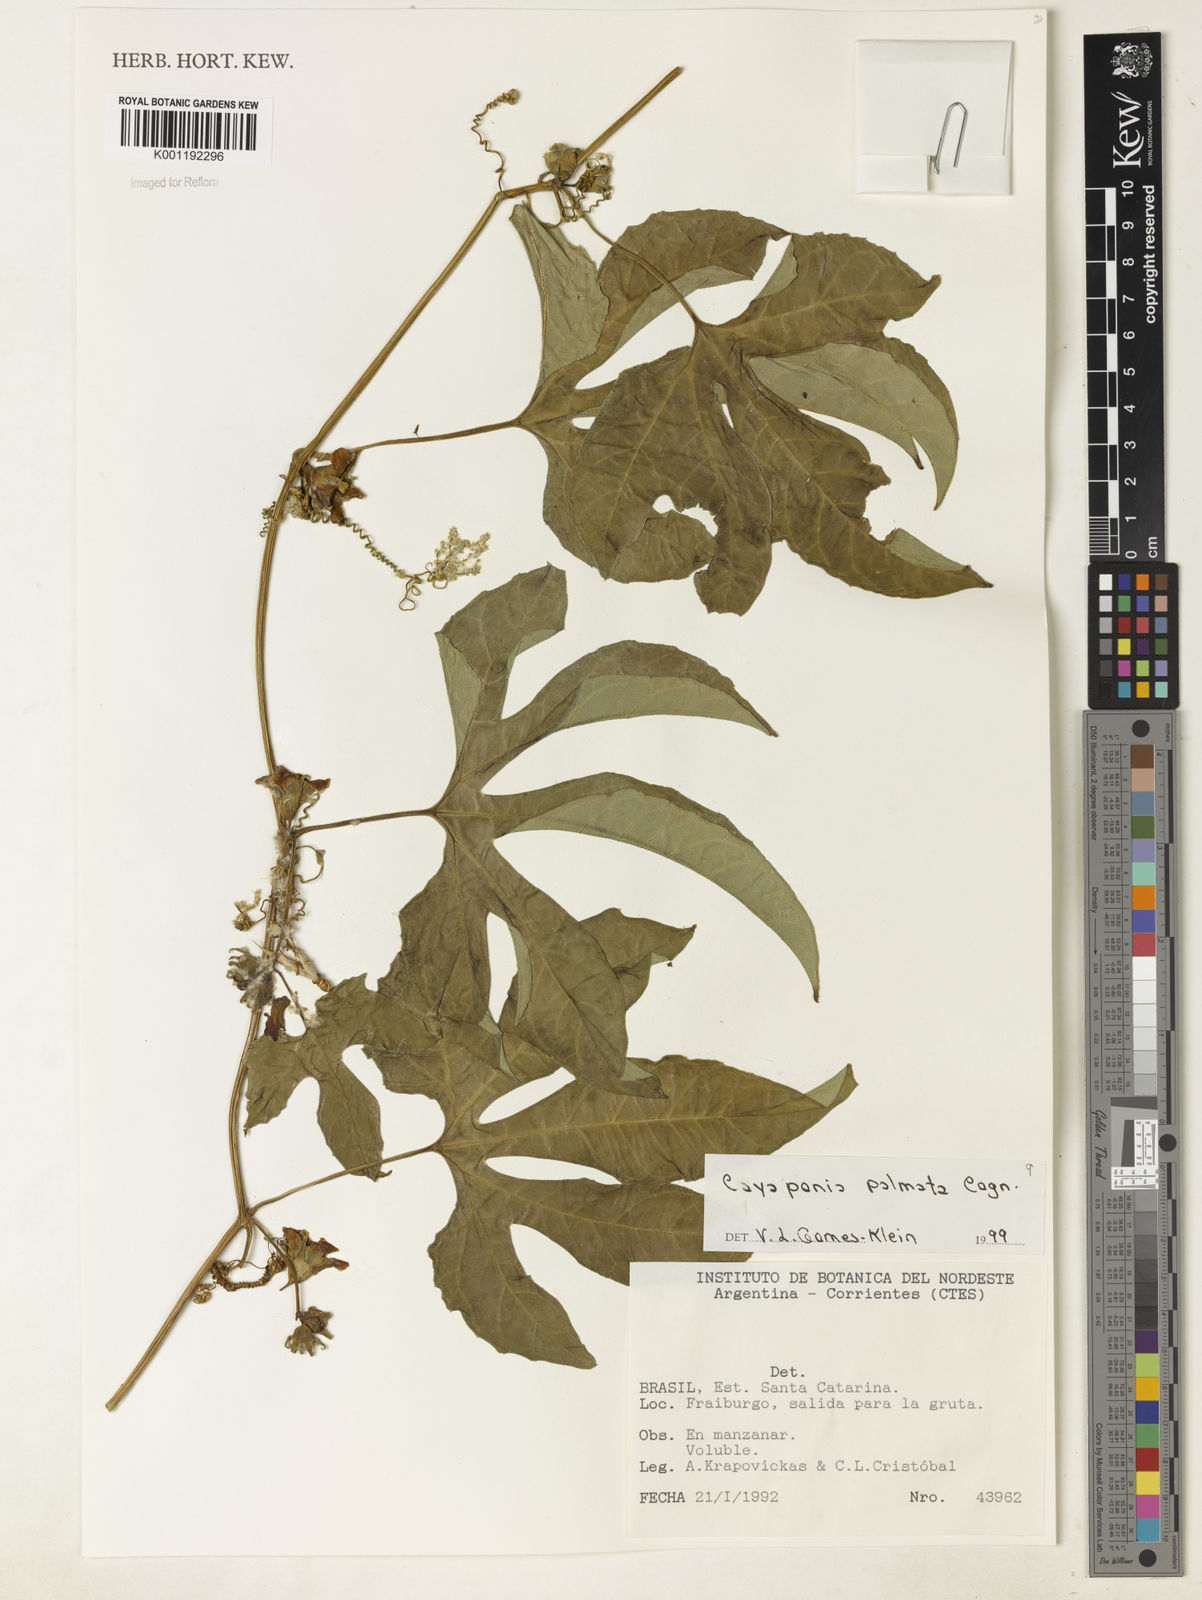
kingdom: Plantae
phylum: Tracheophyta
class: Magnoliopsida
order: Cucurbitales
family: Cucurbitaceae
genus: Cayaponia
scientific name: Cayaponia palmata
